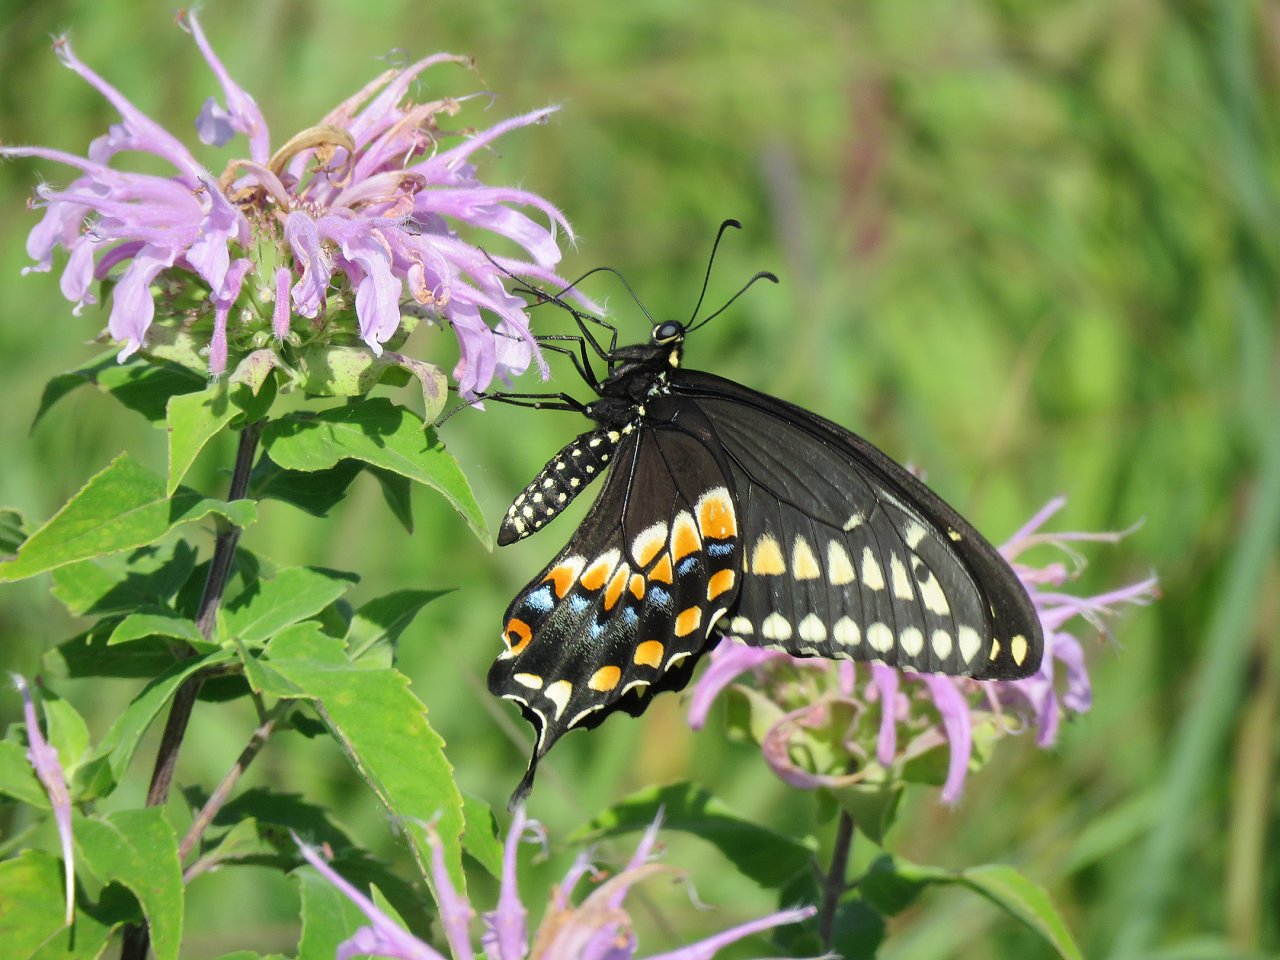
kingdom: Animalia
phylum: Arthropoda
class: Insecta
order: Lepidoptera
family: Papilionidae
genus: Papilio
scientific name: Papilio polyxenes
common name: Black Swallowtail
